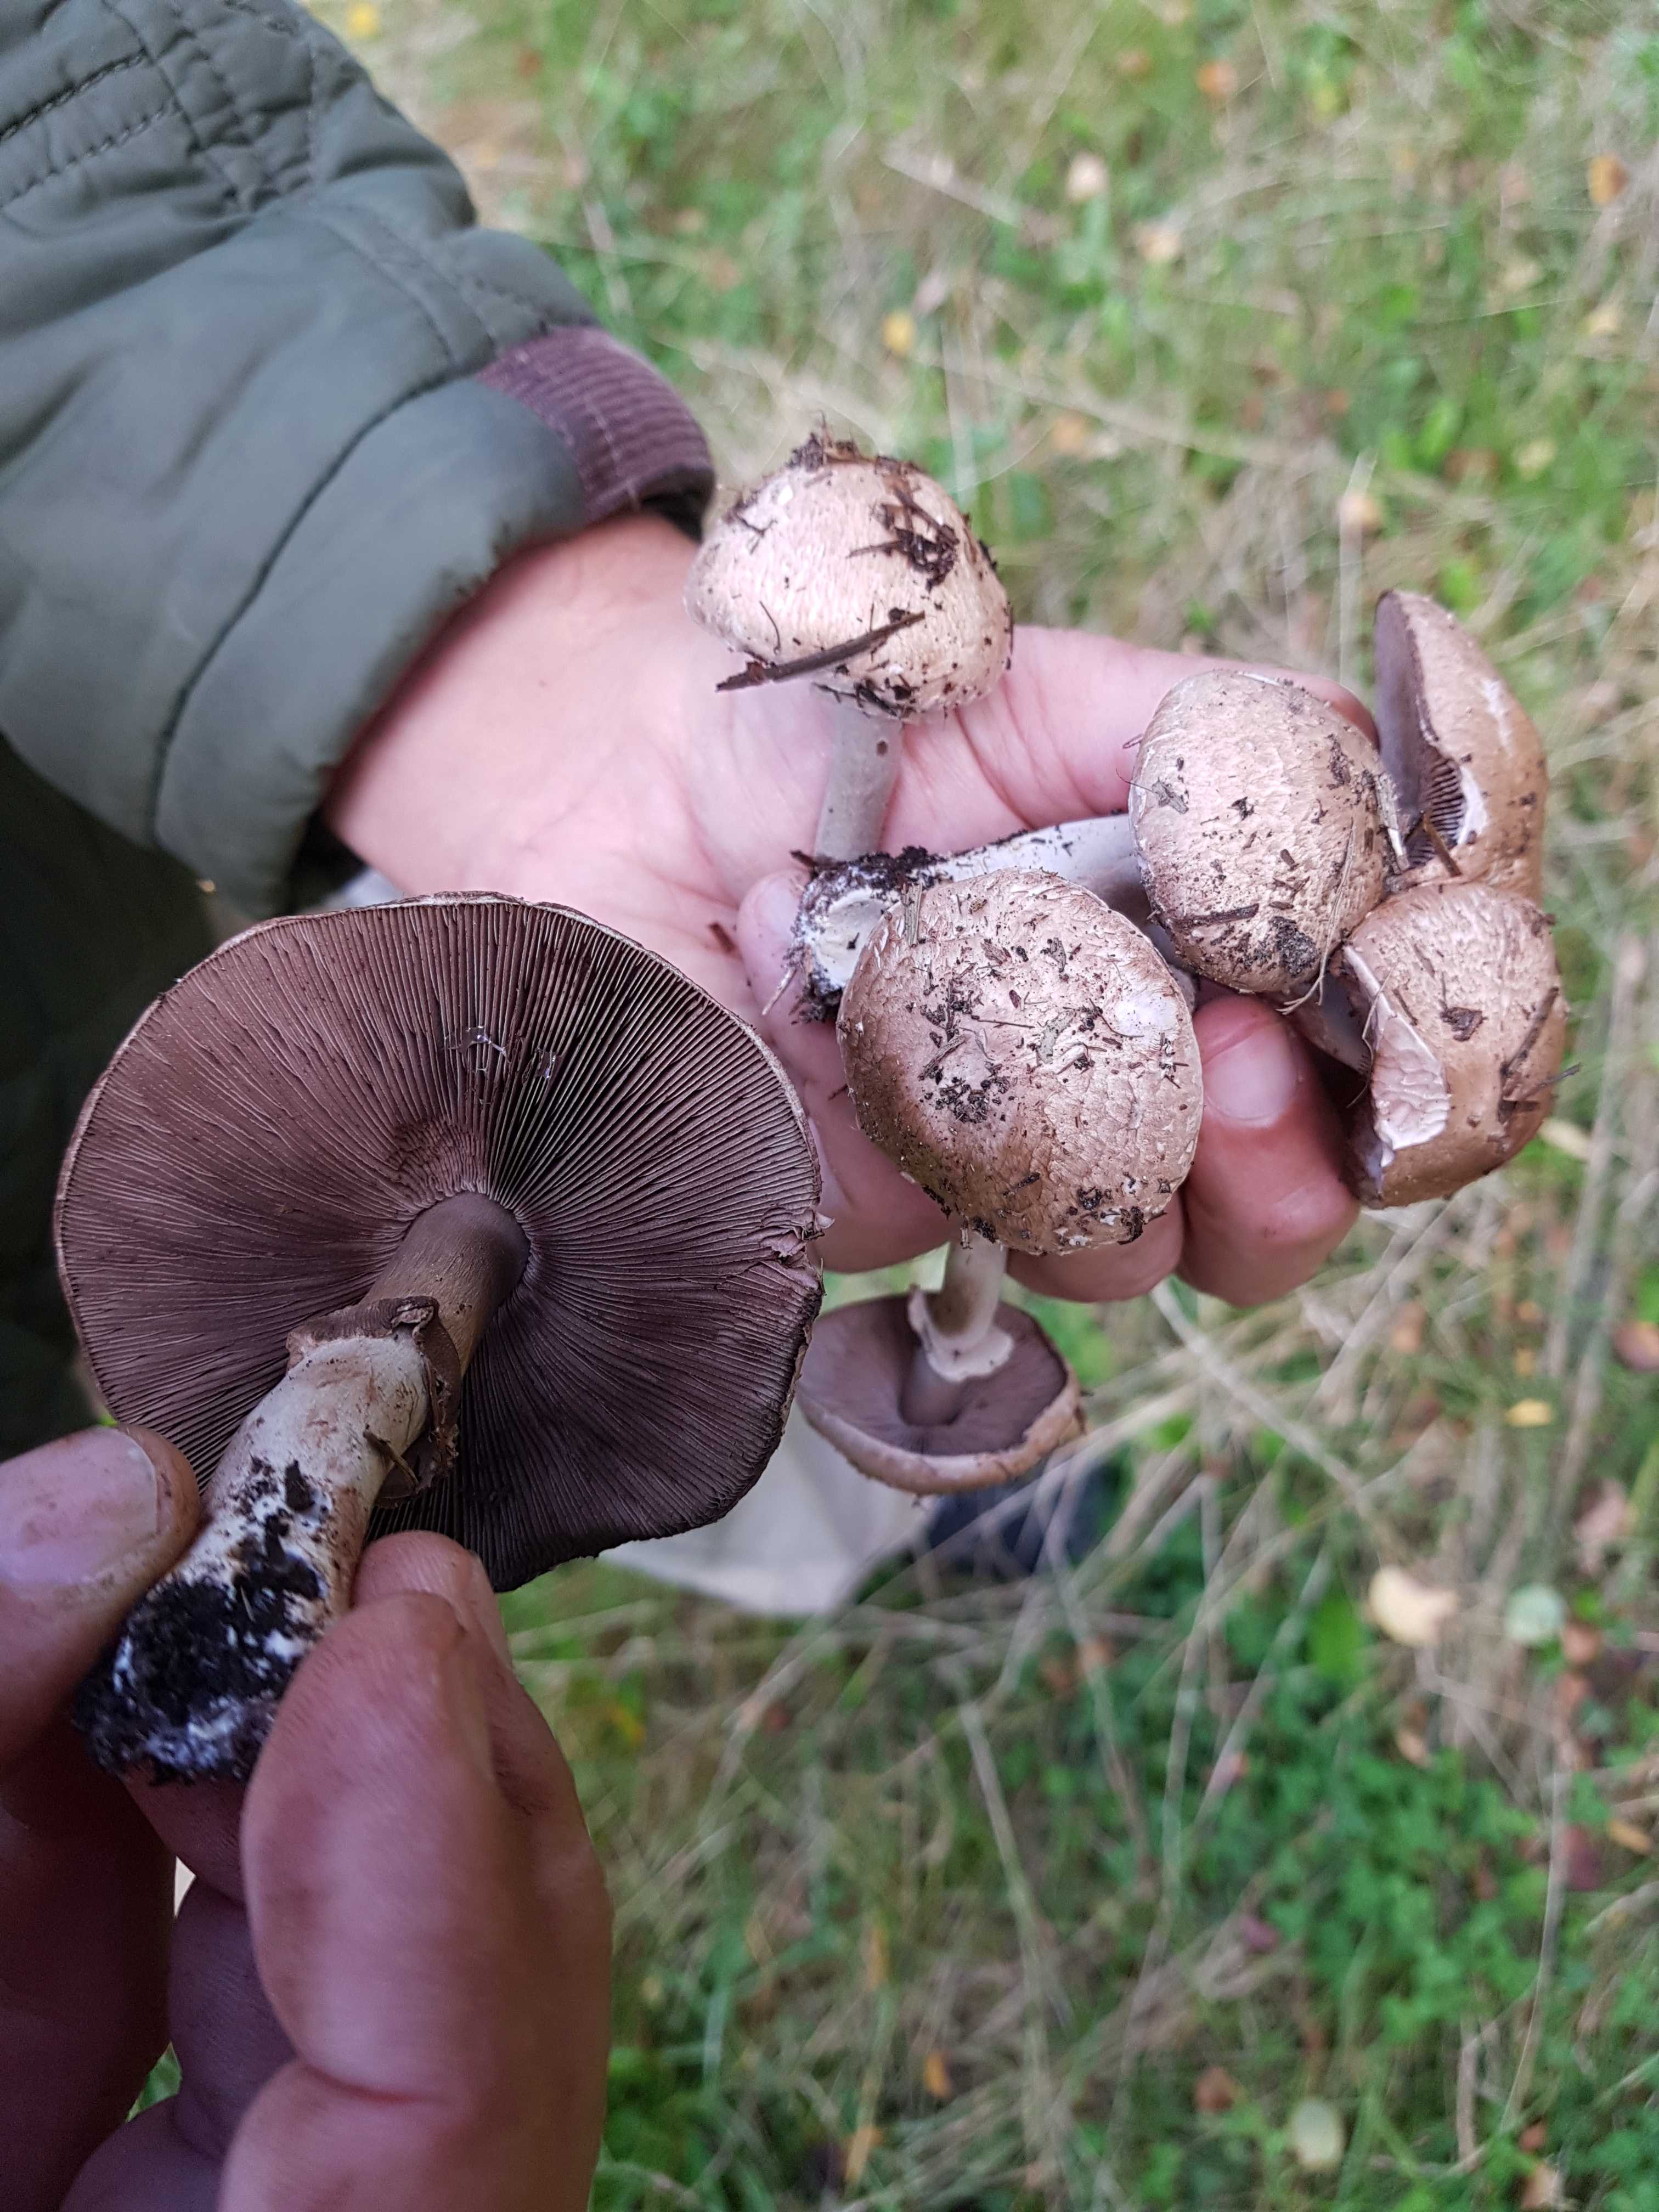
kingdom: Fungi
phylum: Basidiomycota
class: Agaricomycetes
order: Agaricales
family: Agaricaceae
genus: Agaricus
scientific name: Agaricus
